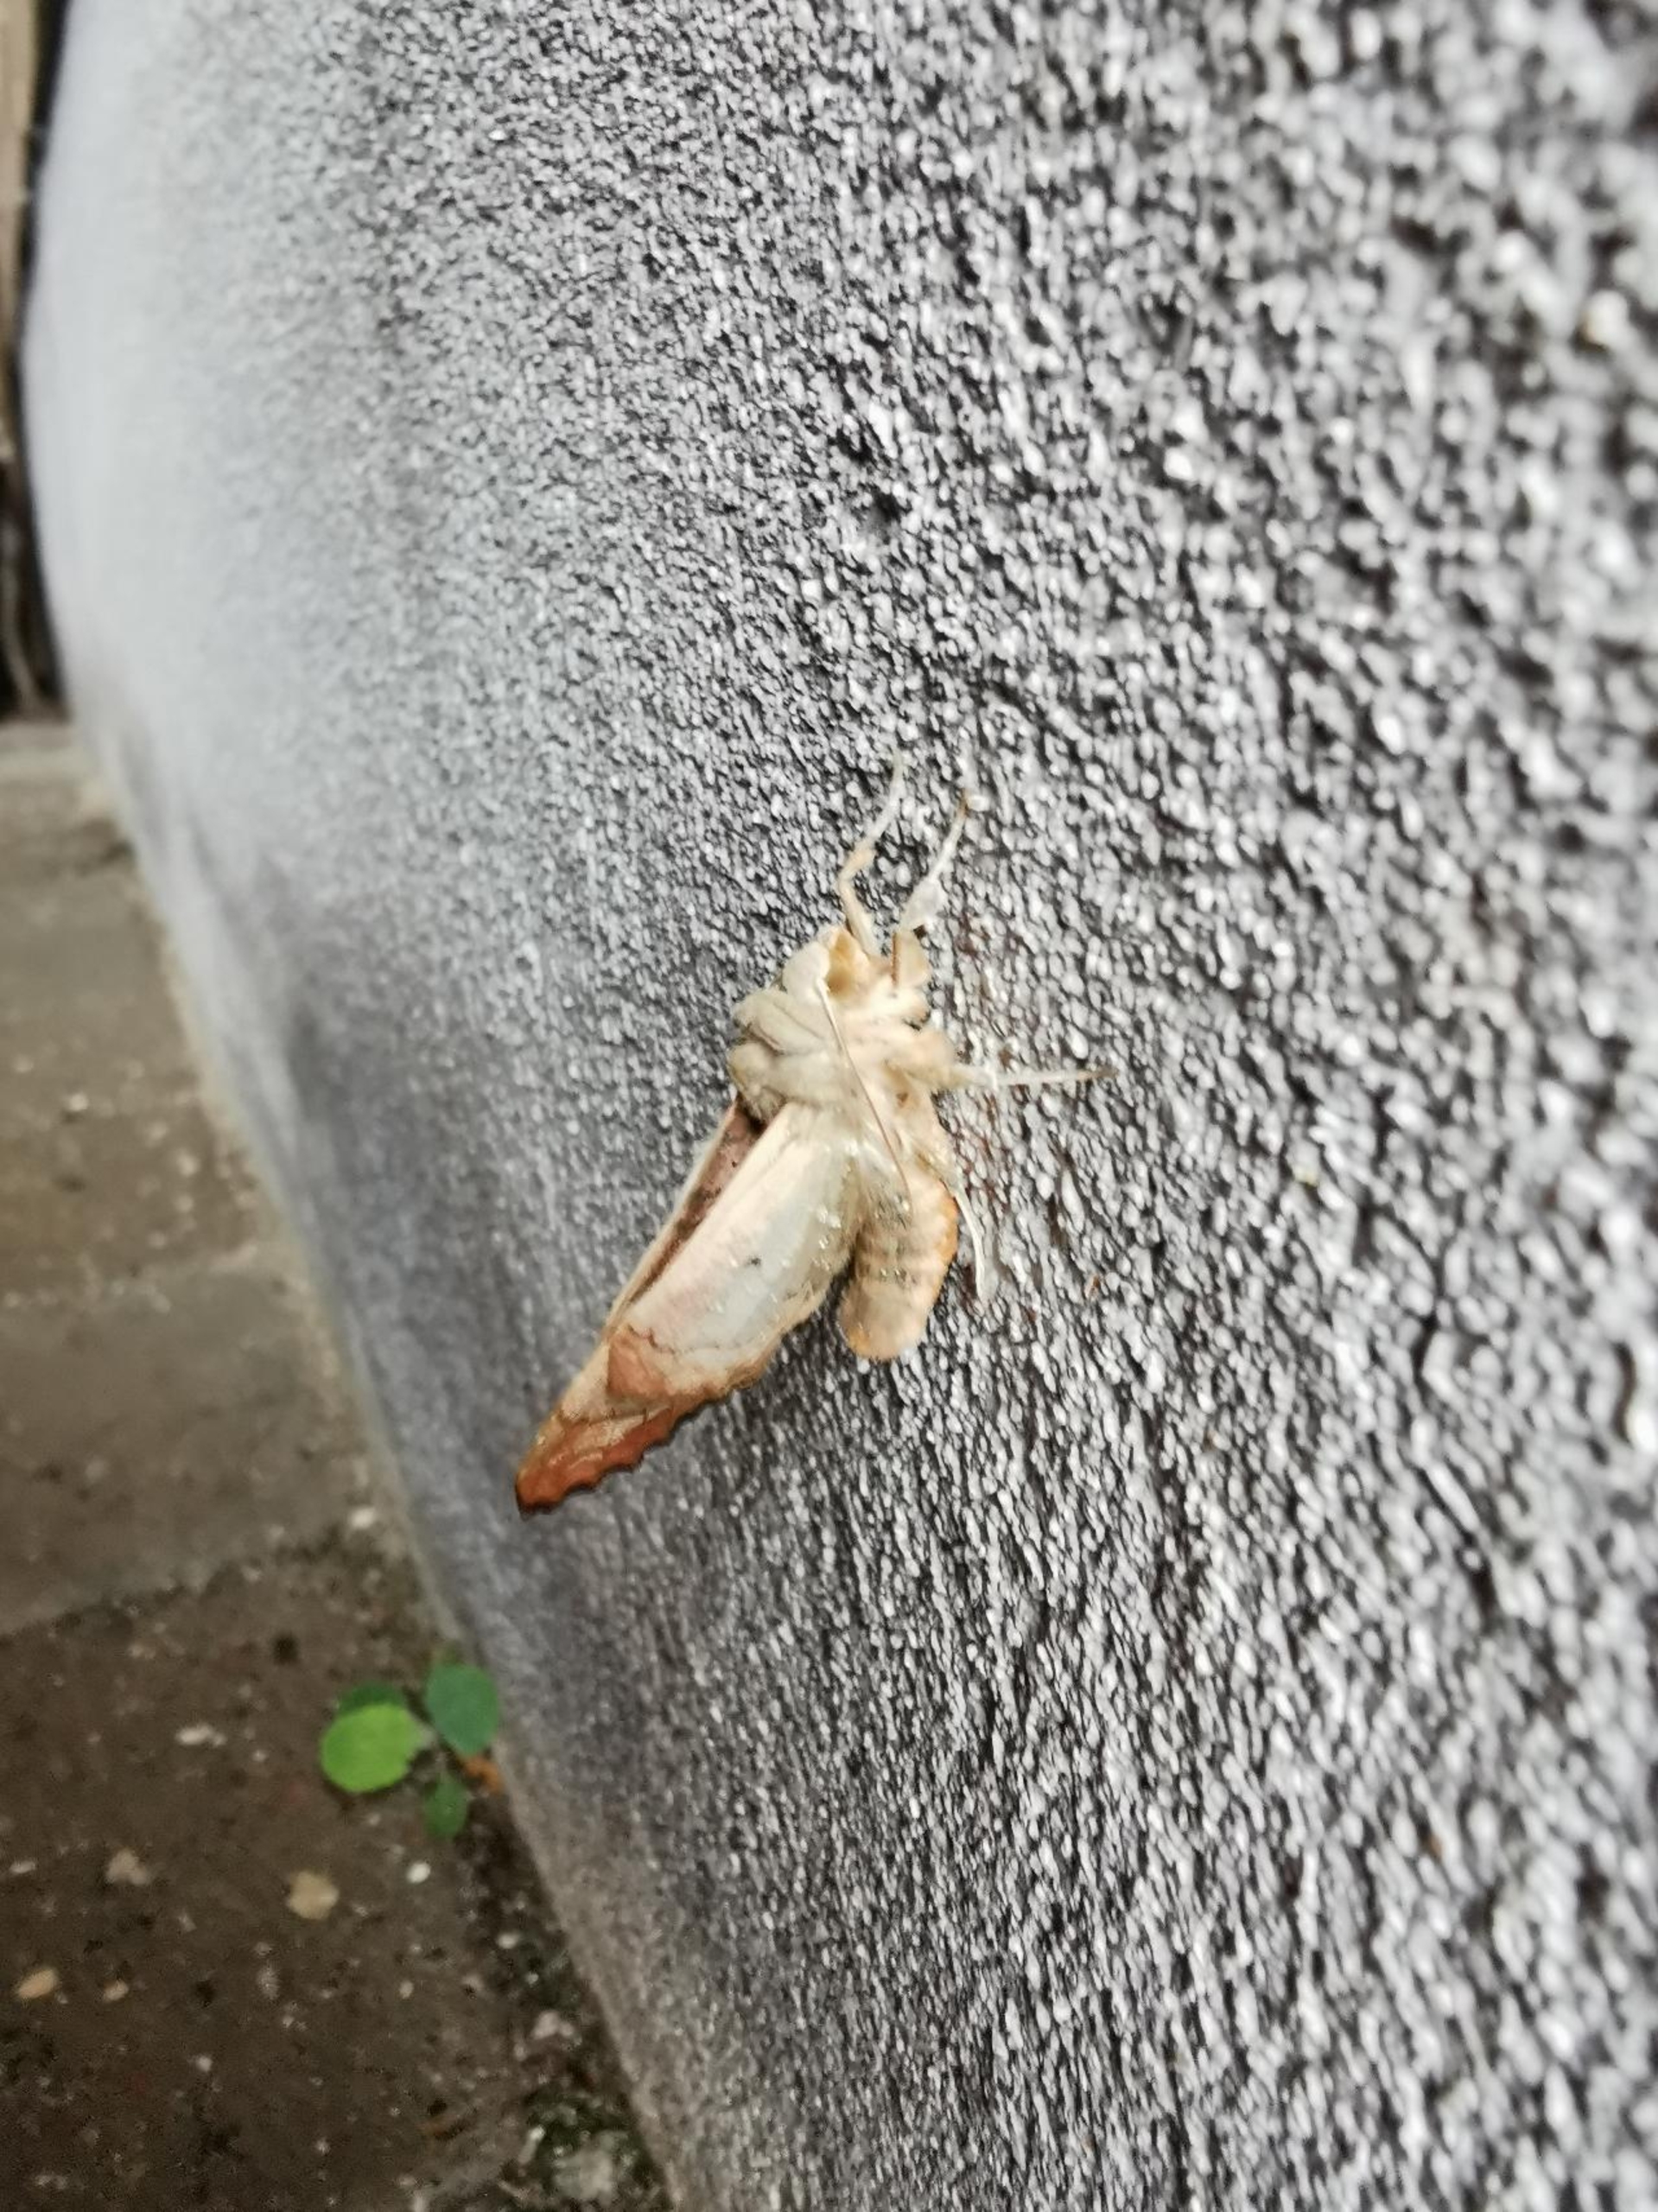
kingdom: Animalia
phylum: Arthropoda
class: Insecta
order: Lepidoptera
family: Noctuidae
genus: Phlogophora
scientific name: Phlogophora meticulosa
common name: Agatugle
